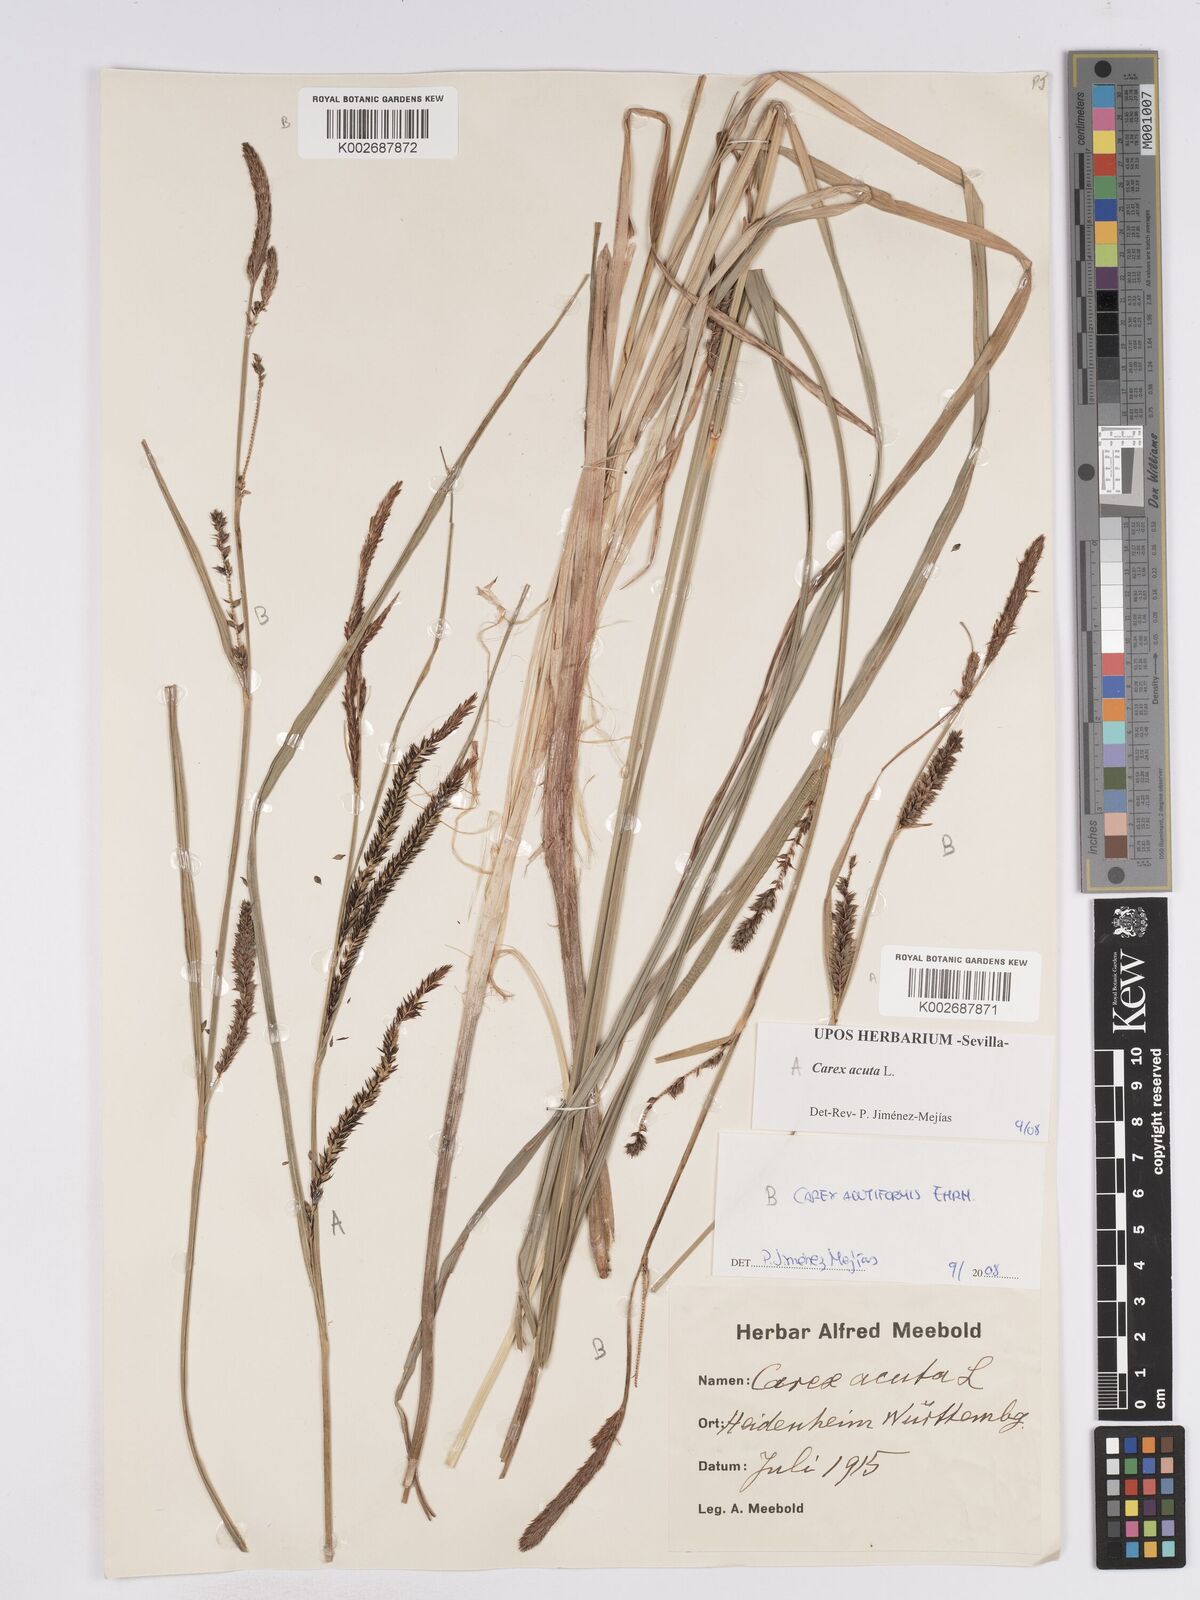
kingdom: Plantae
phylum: Tracheophyta
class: Liliopsida
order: Poales
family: Cyperaceae
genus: Carex
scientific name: Carex acuta
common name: Slender tufted-sedge
